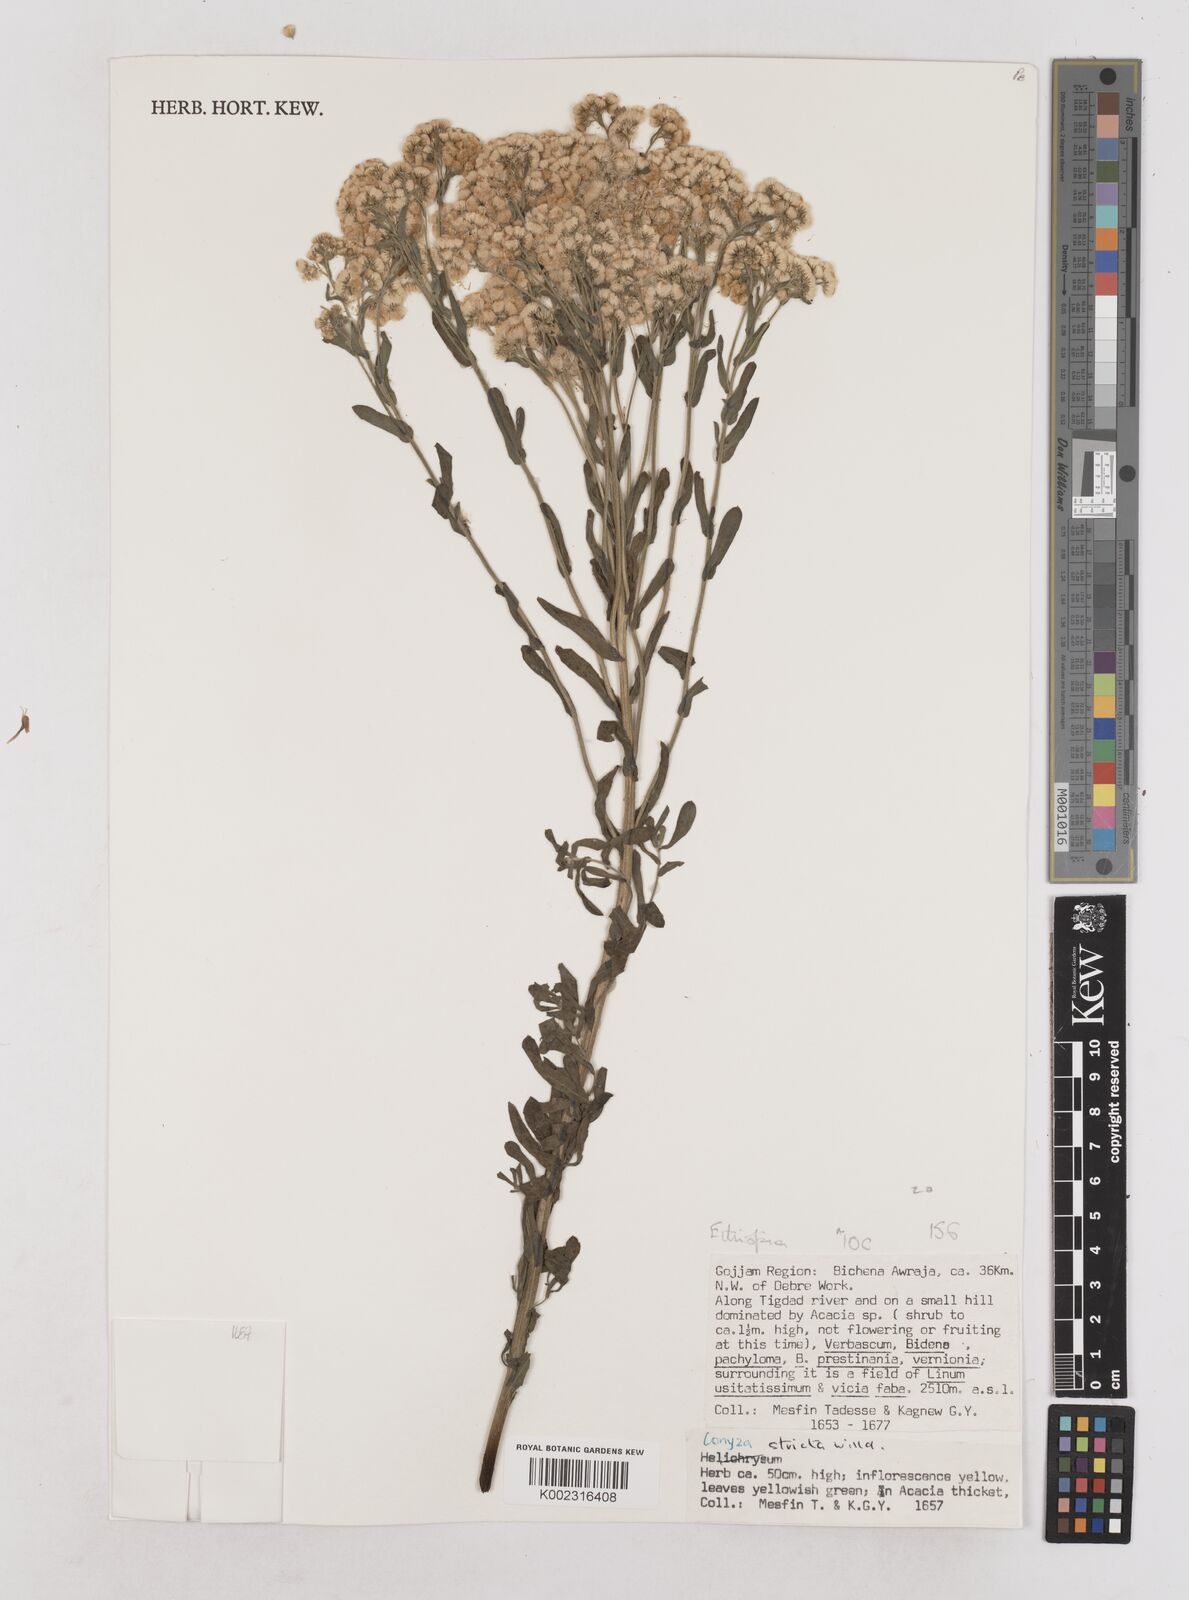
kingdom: Plantae
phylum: Tracheophyta
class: Magnoliopsida
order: Asterales
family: Asteraceae
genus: Nidorella
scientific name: Nidorella triloba
